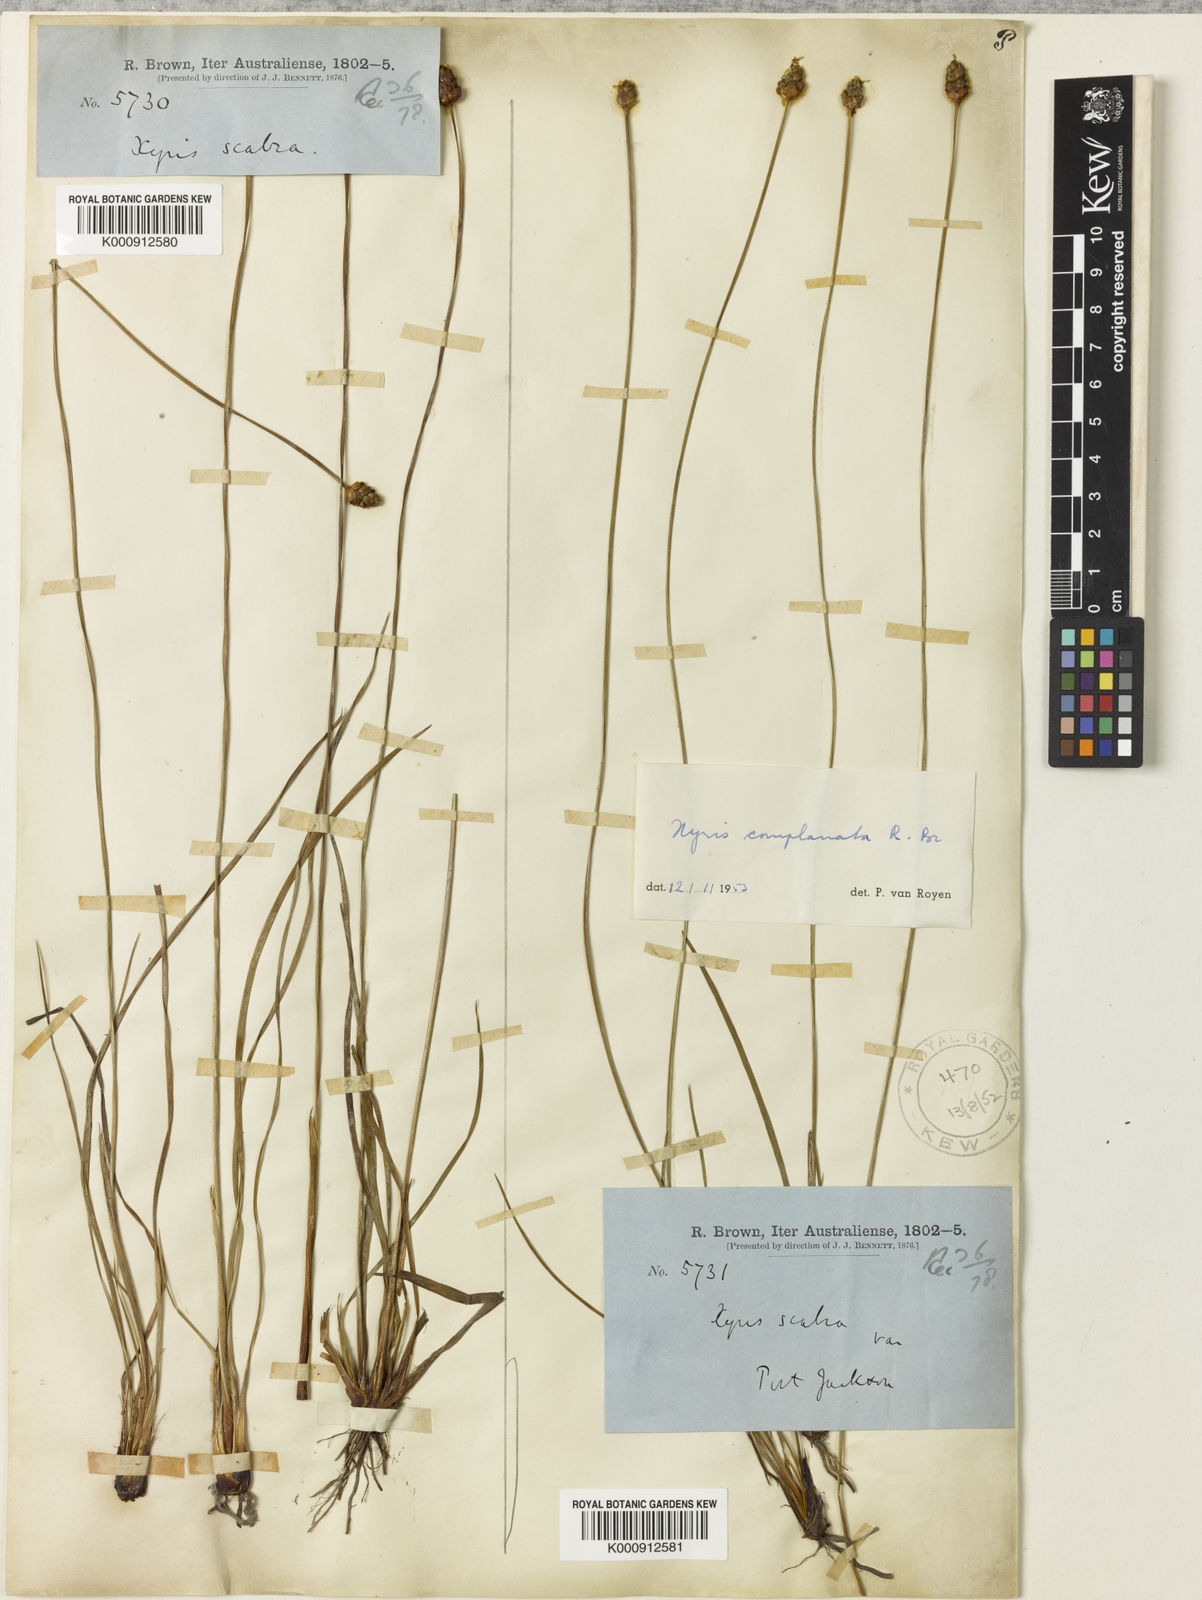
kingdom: Plantae
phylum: Tracheophyta
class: Liliopsida
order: Poales
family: Xyridaceae
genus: Xyris
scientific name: Xyris complanata
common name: Hawai'i yelloweyed grass
